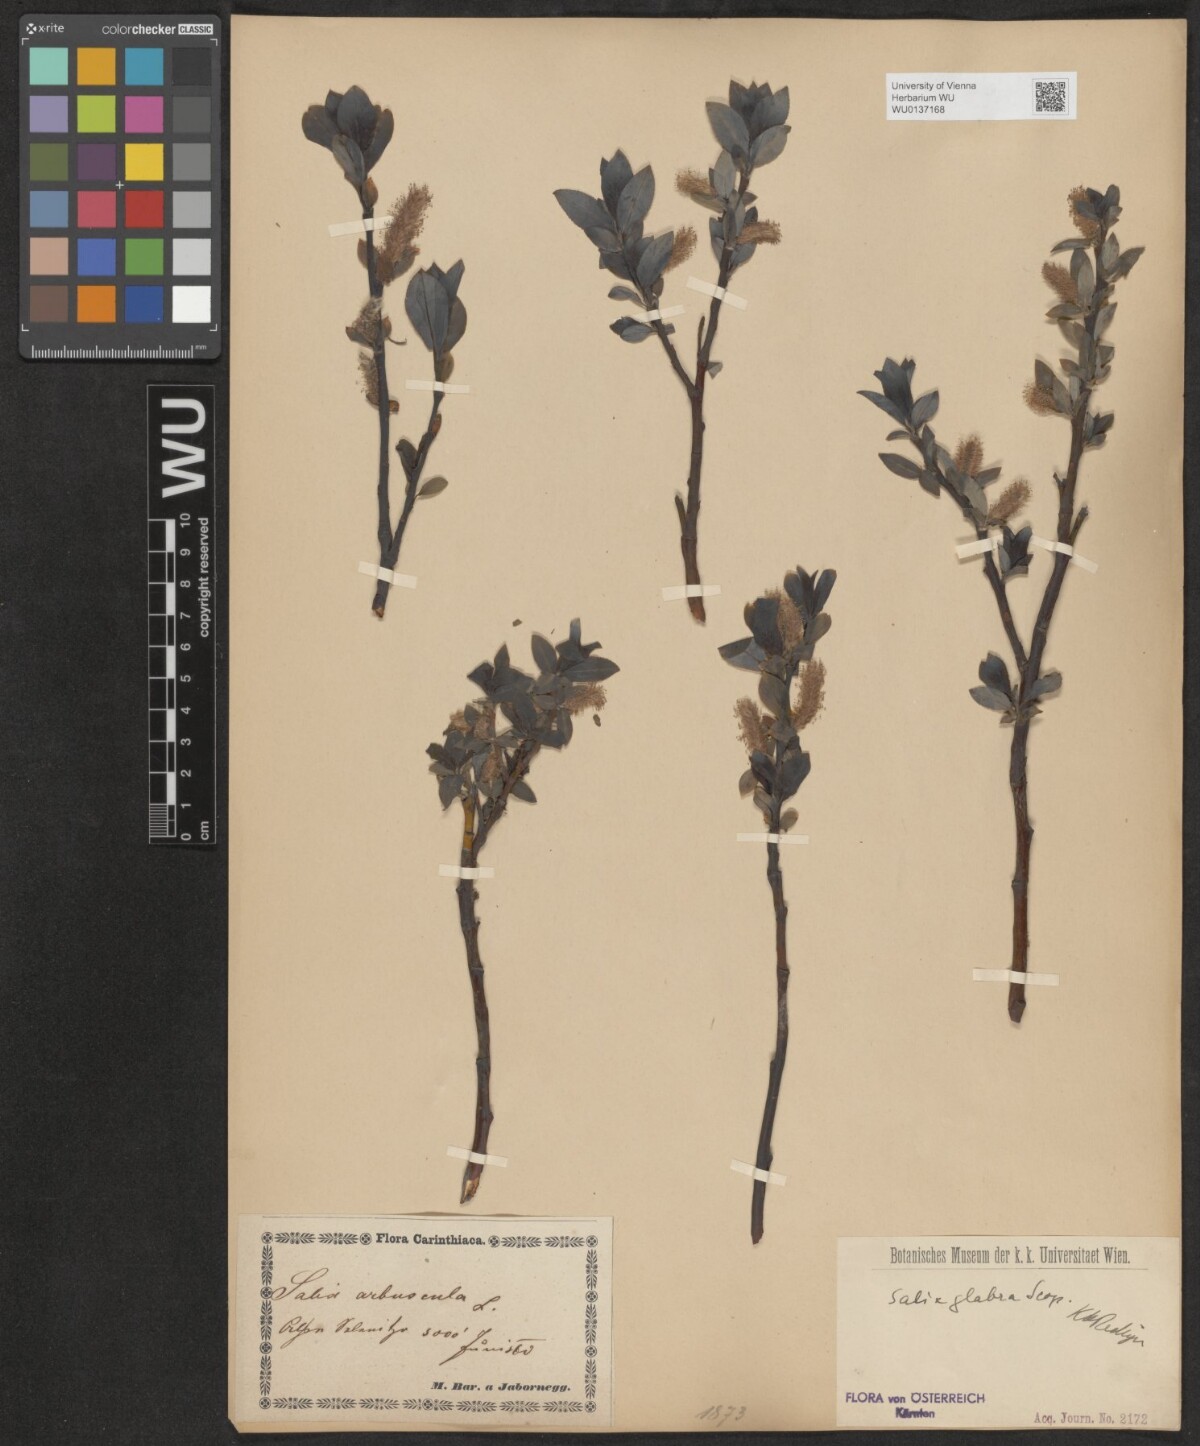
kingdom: Plantae
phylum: Tracheophyta
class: Magnoliopsida
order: Malpighiales
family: Salicaceae
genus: Salix
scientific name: Salix glabra
